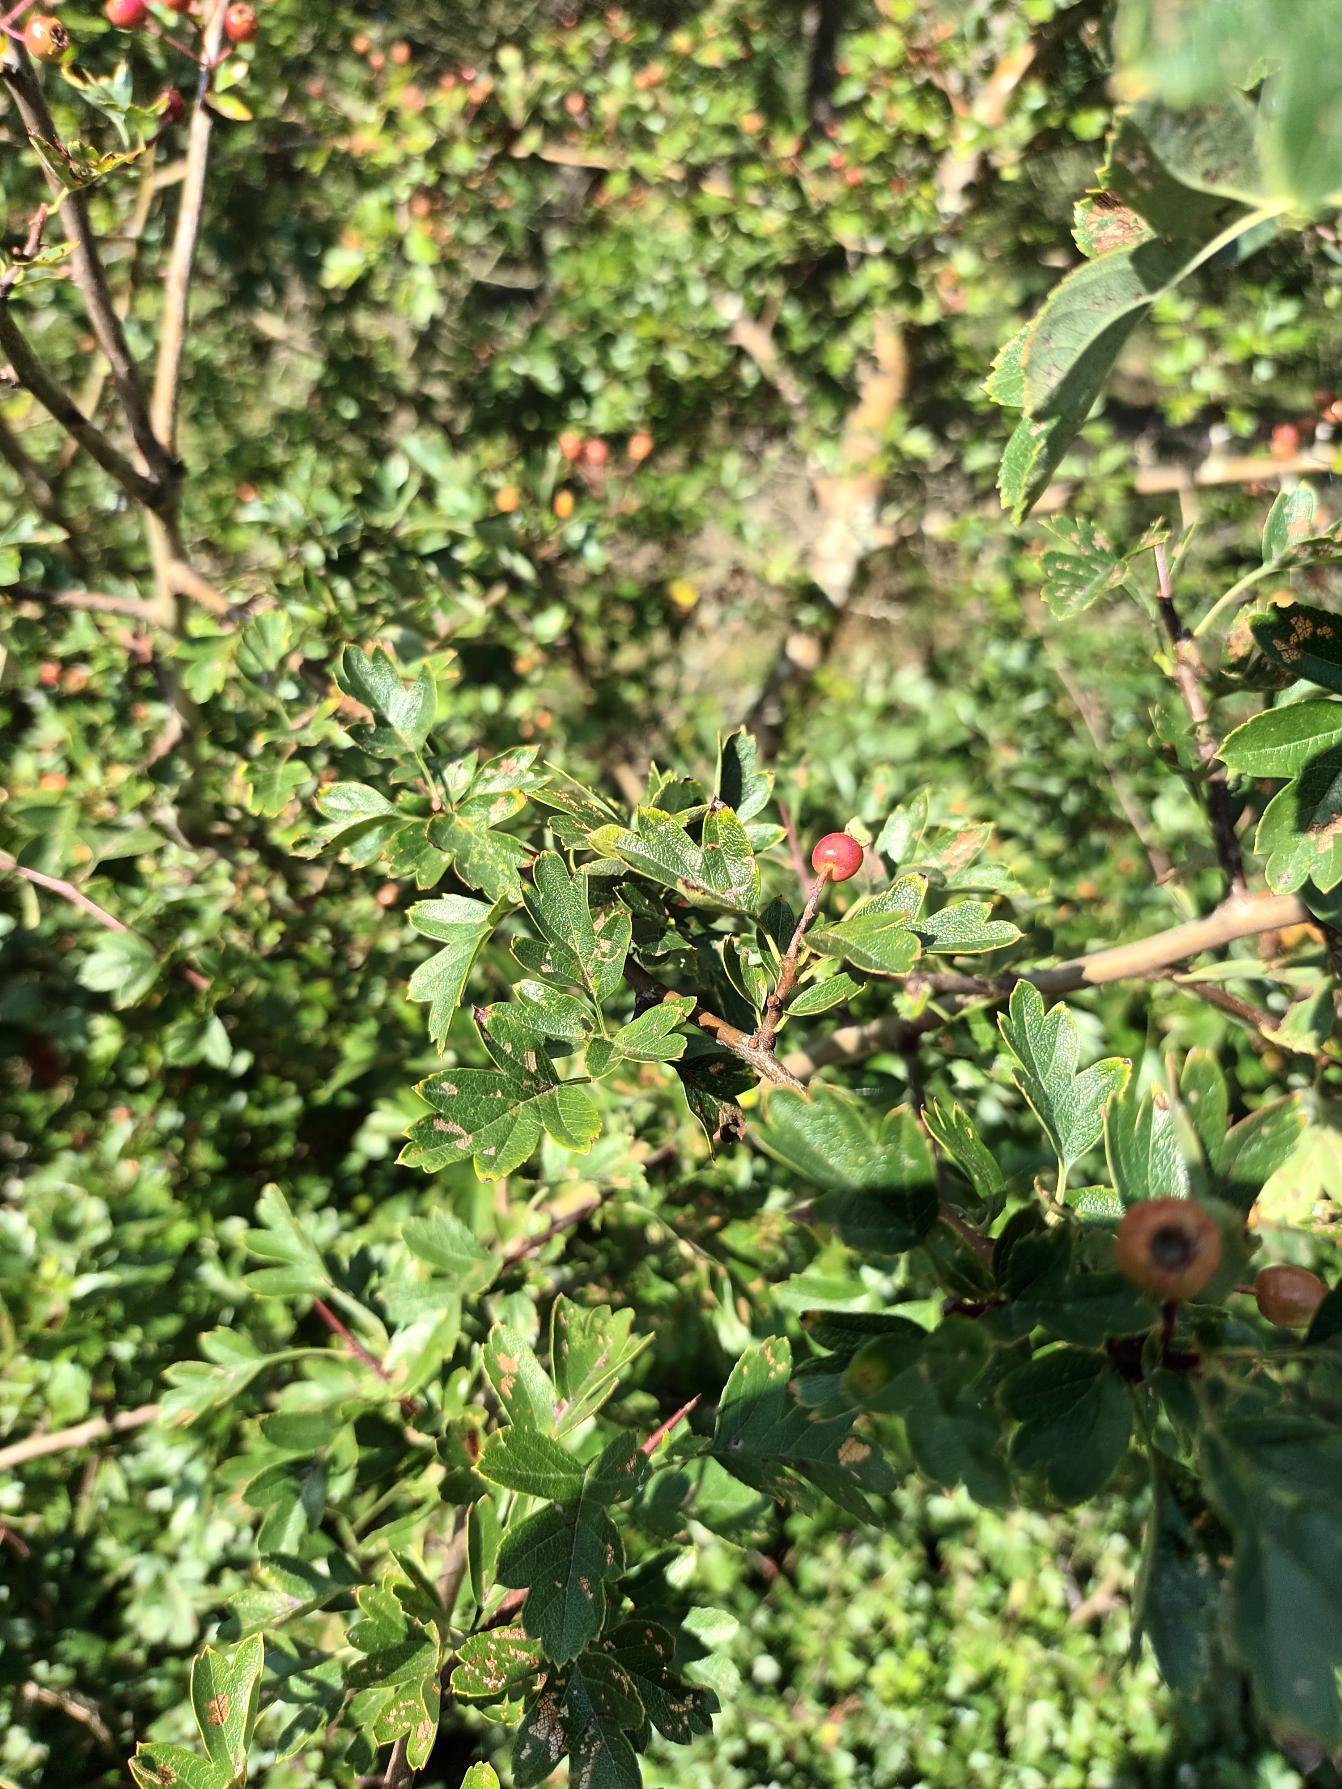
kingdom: Plantae
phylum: Tracheophyta
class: Magnoliopsida
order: Rosales
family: Rosaceae
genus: Crataegus
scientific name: Crataegus monogyna
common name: Engriflet hvidtjørn
